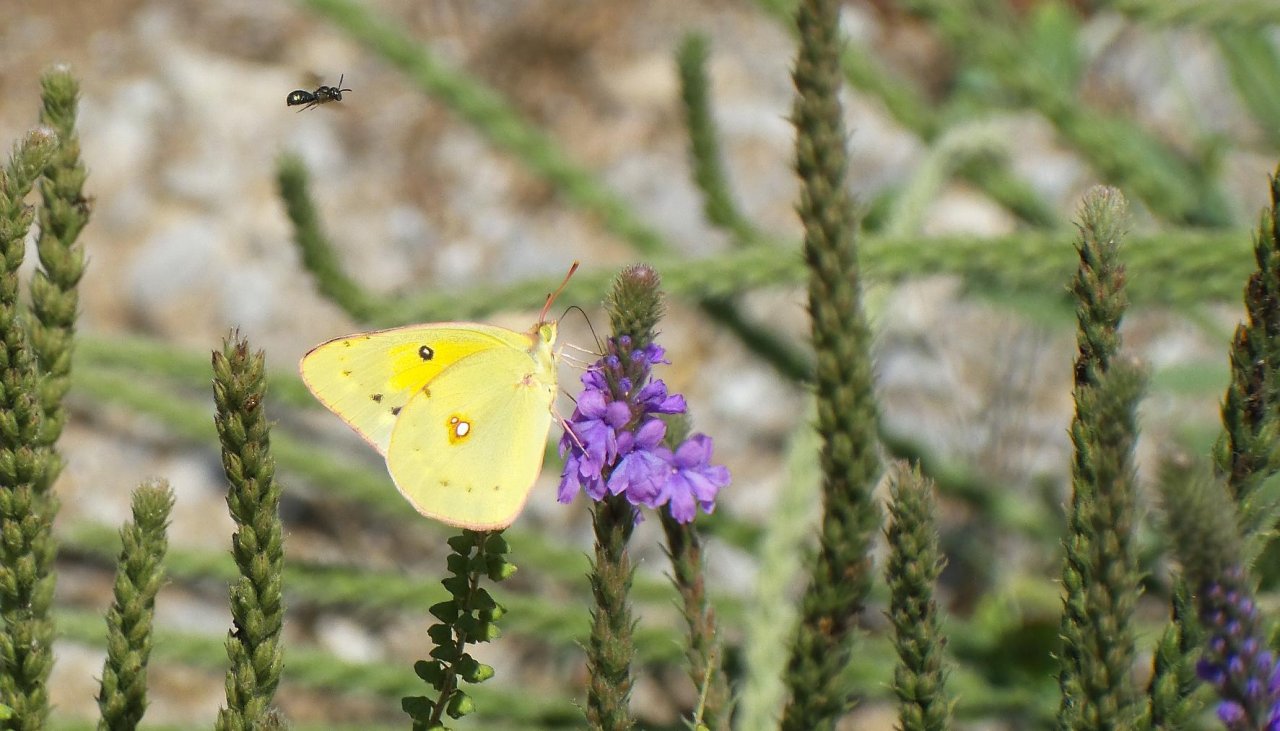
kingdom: Animalia
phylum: Arthropoda
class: Insecta
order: Lepidoptera
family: Pieridae
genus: Colias
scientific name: Colias eurytheme
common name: Orange Sulphur
